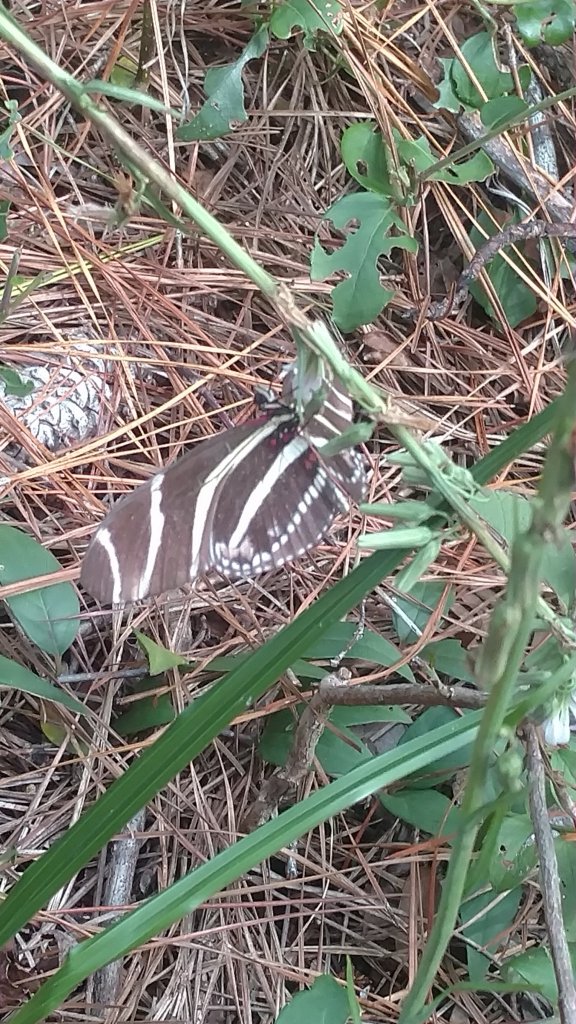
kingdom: Animalia
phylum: Arthropoda
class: Insecta
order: Lepidoptera
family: Nymphalidae
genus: Heliconius
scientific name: Heliconius charithonia
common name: Zebra Longwing
